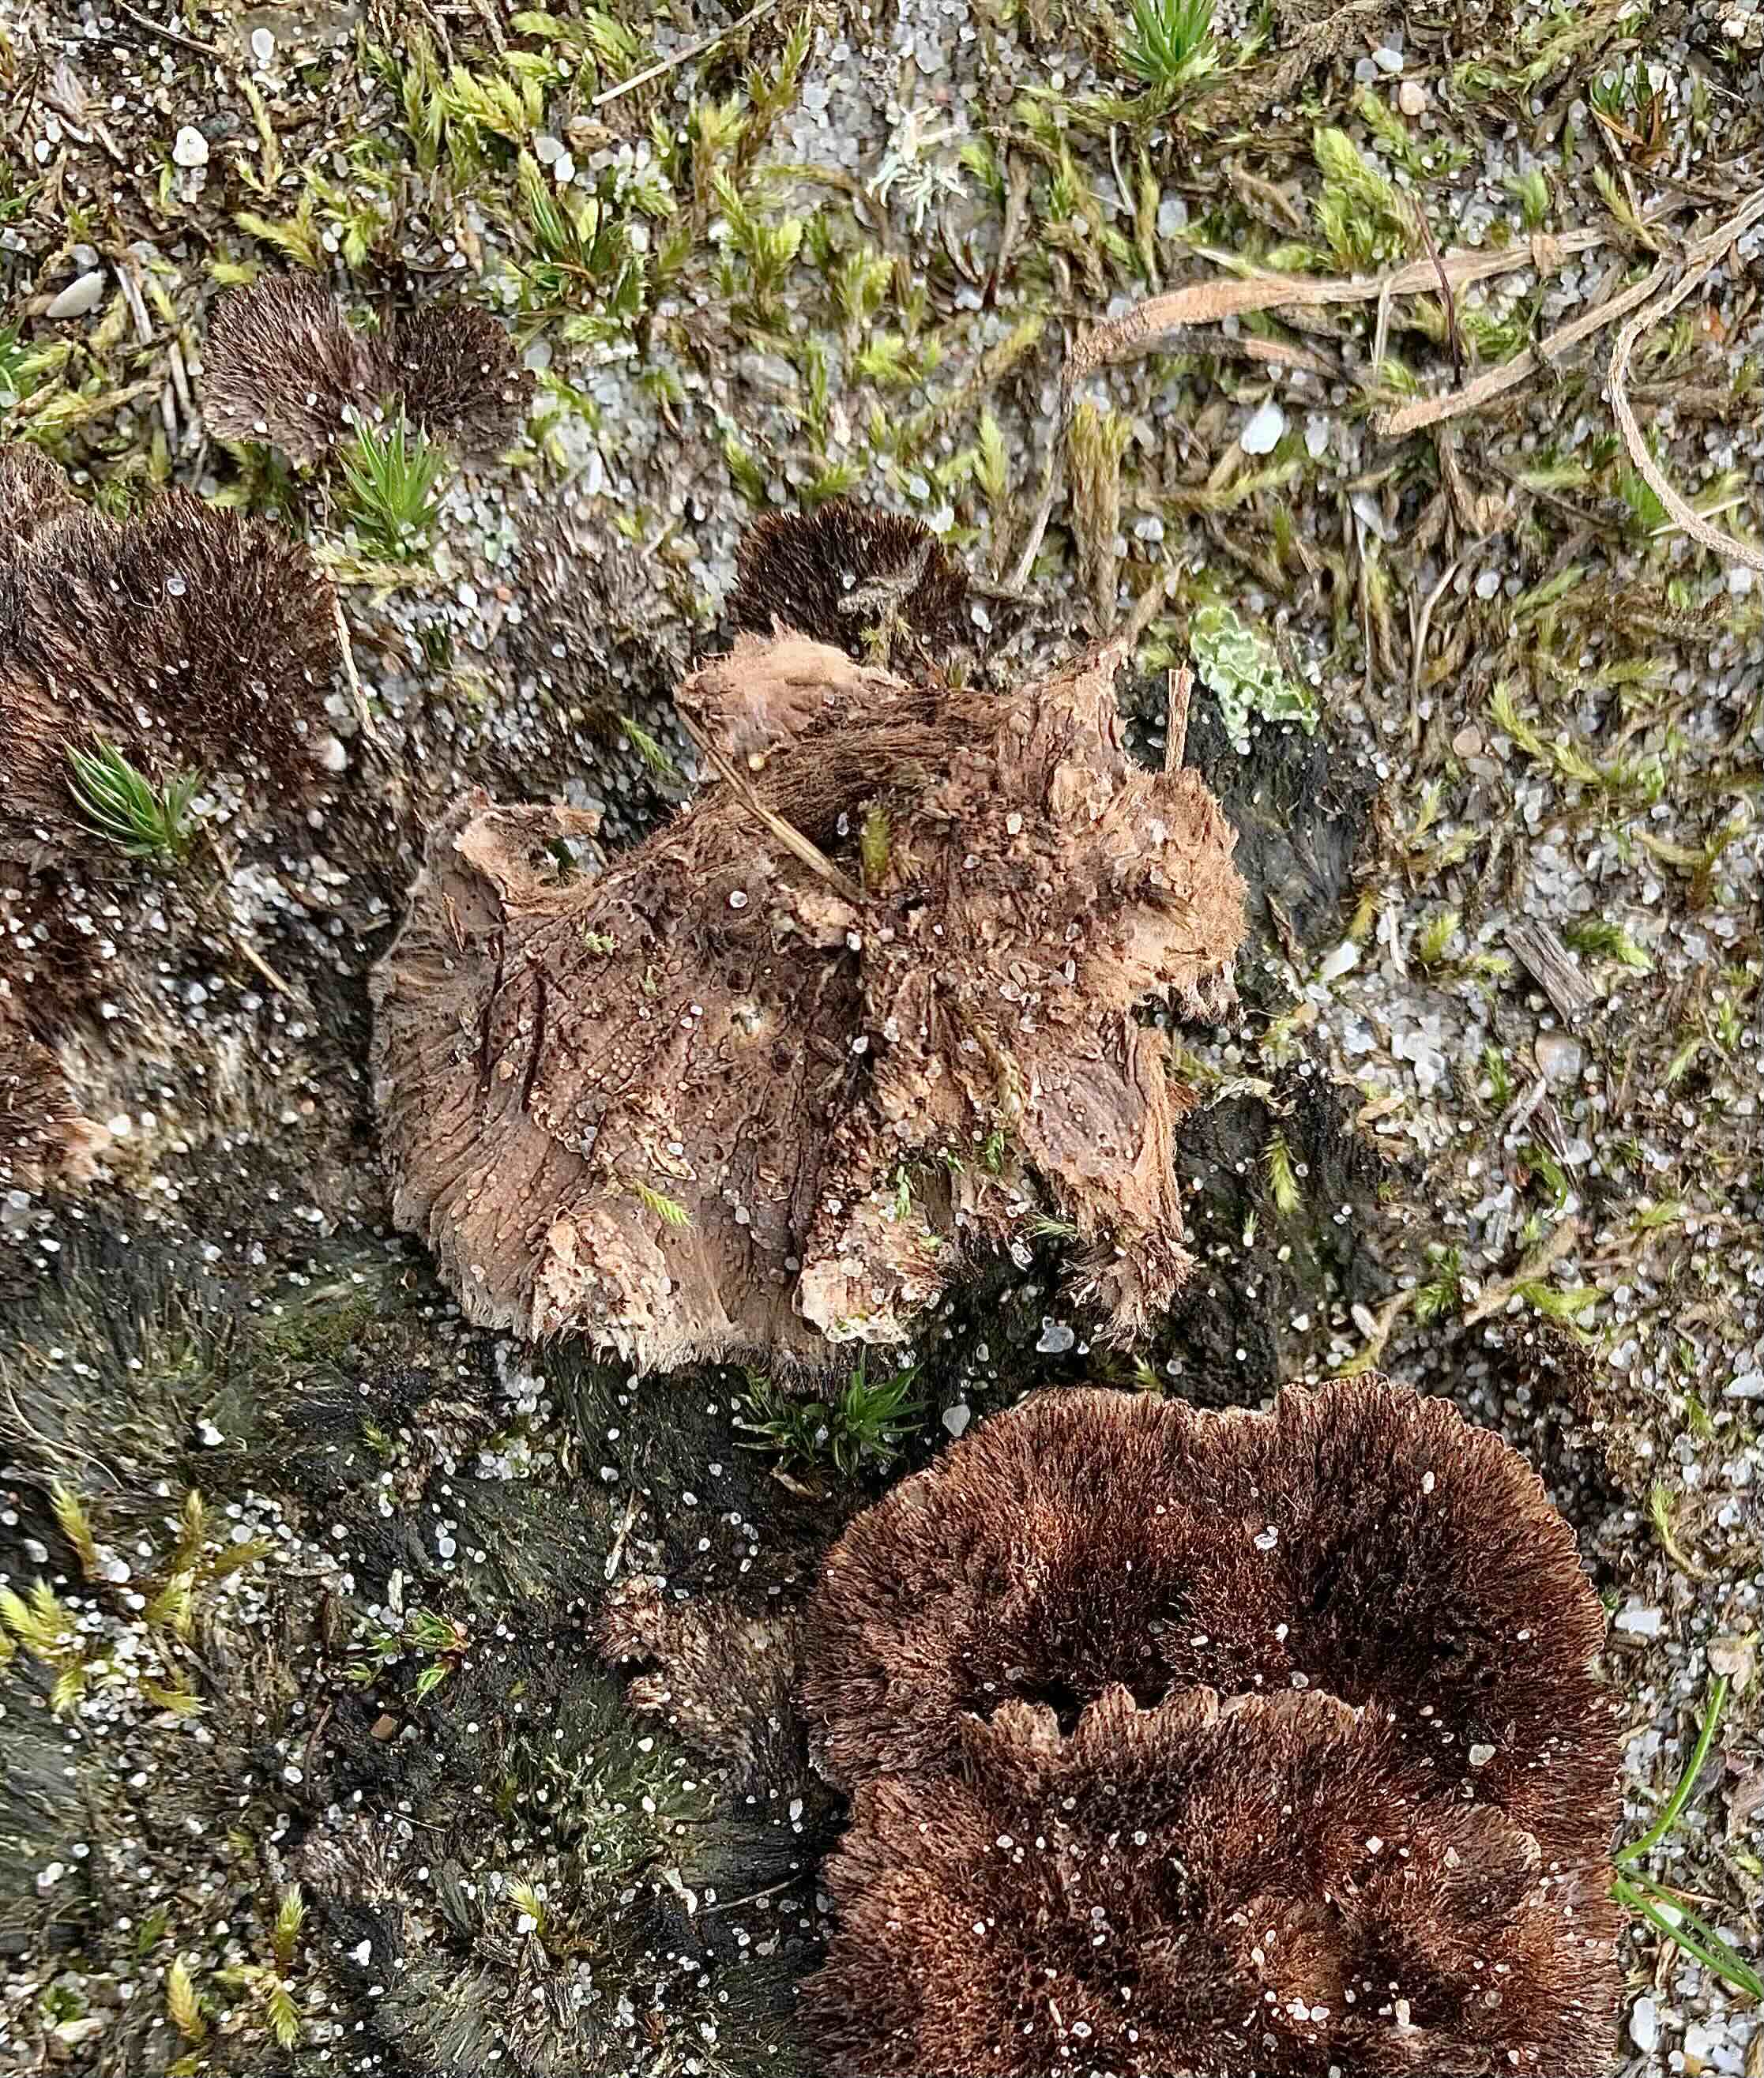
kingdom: Fungi
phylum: Basidiomycota
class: Agaricomycetes
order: Thelephorales
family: Thelephoraceae
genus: Thelephora
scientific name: Thelephora terrestris
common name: fliget frynsesvamp
